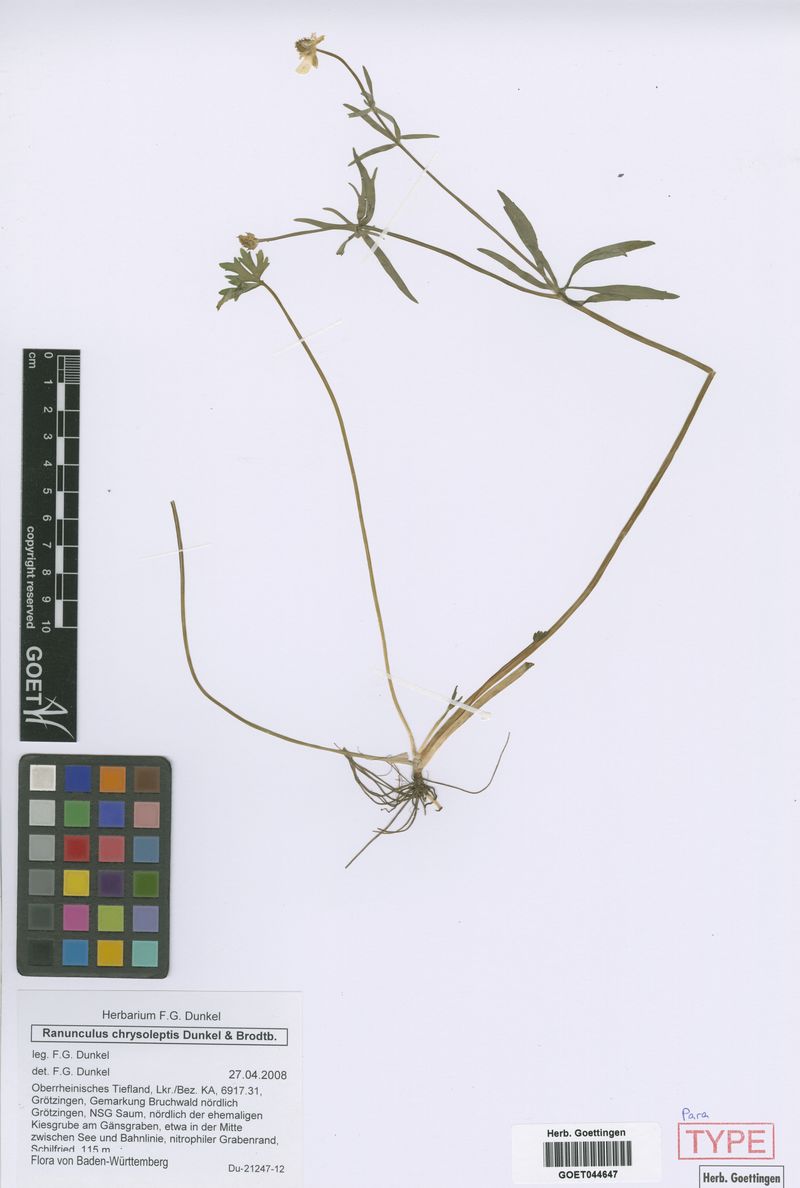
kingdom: Plantae
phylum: Tracheophyta
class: Magnoliopsida
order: Ranunculales
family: Ranunculaceae
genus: Ranunculus
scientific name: Ranunculus chrysoleptos
